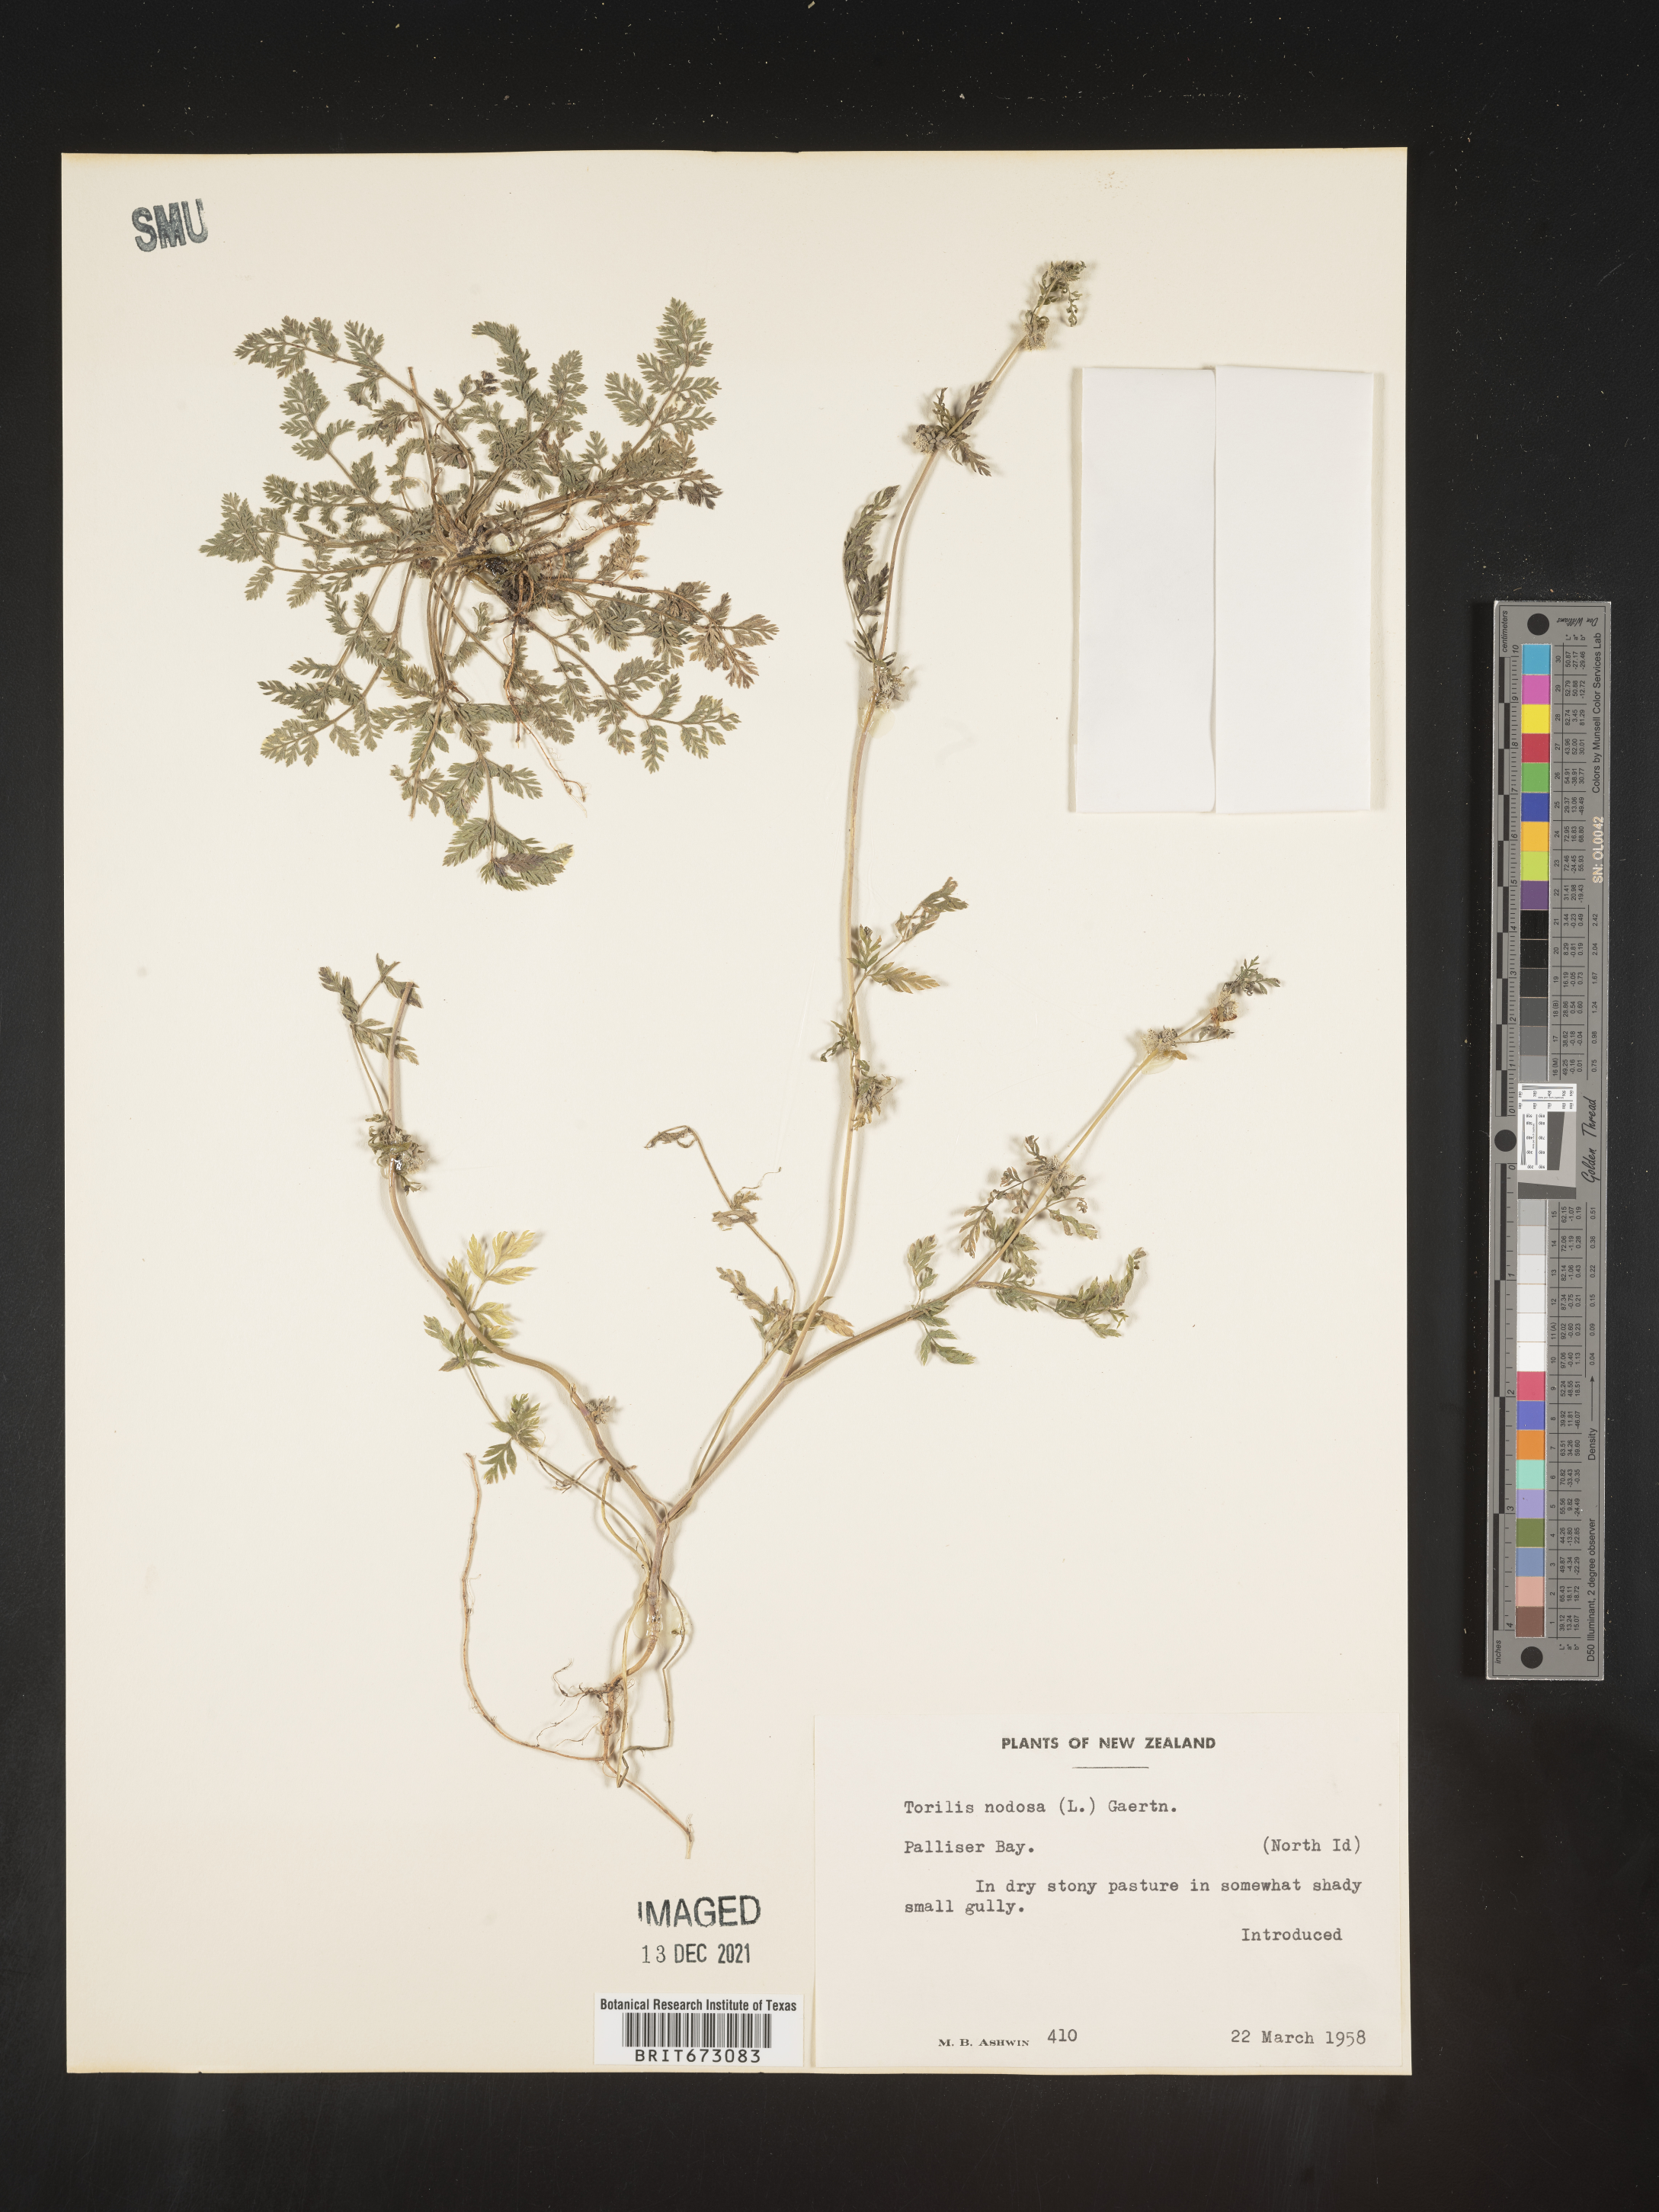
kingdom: Plantae
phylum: Tracheophyta
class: Magnoliopsida
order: Apiales
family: Apiaceae
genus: Torilis
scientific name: Torilis
